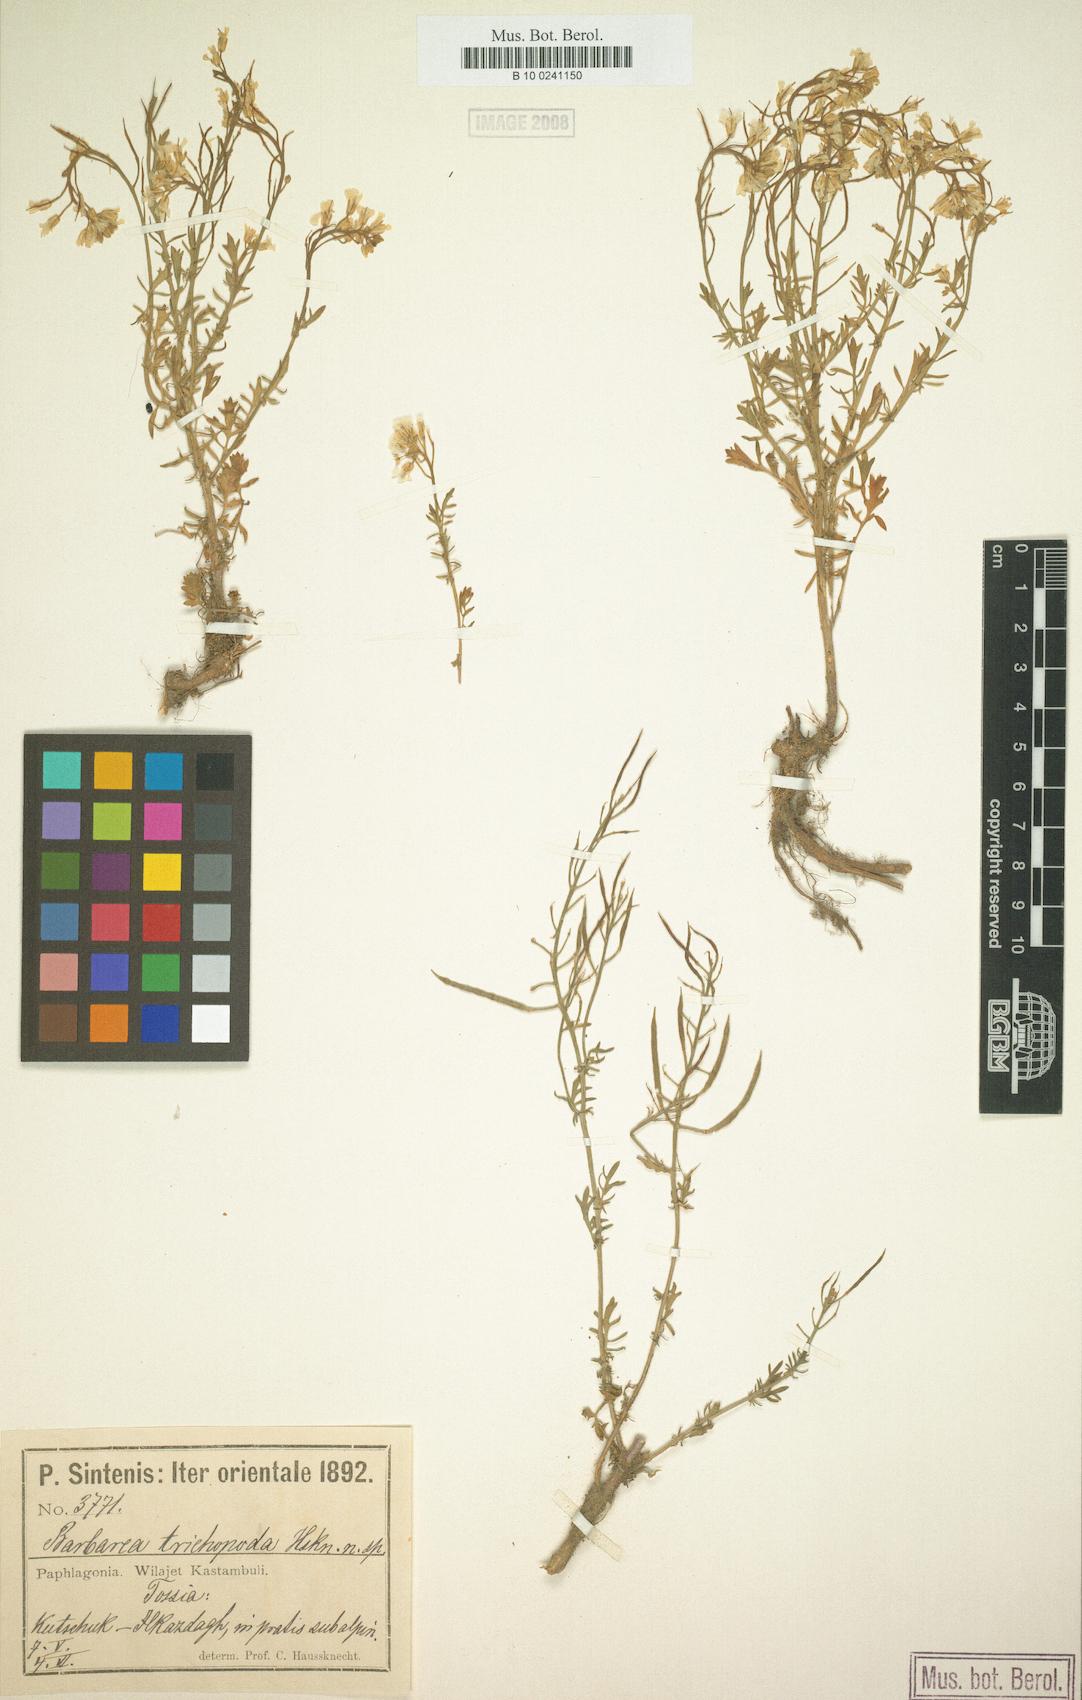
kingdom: Plantae
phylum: Tracheophyta
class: Magnoliopsida
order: Brassicales
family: Brassicaceae
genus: Barbarea
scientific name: Barbarea trichopoda
